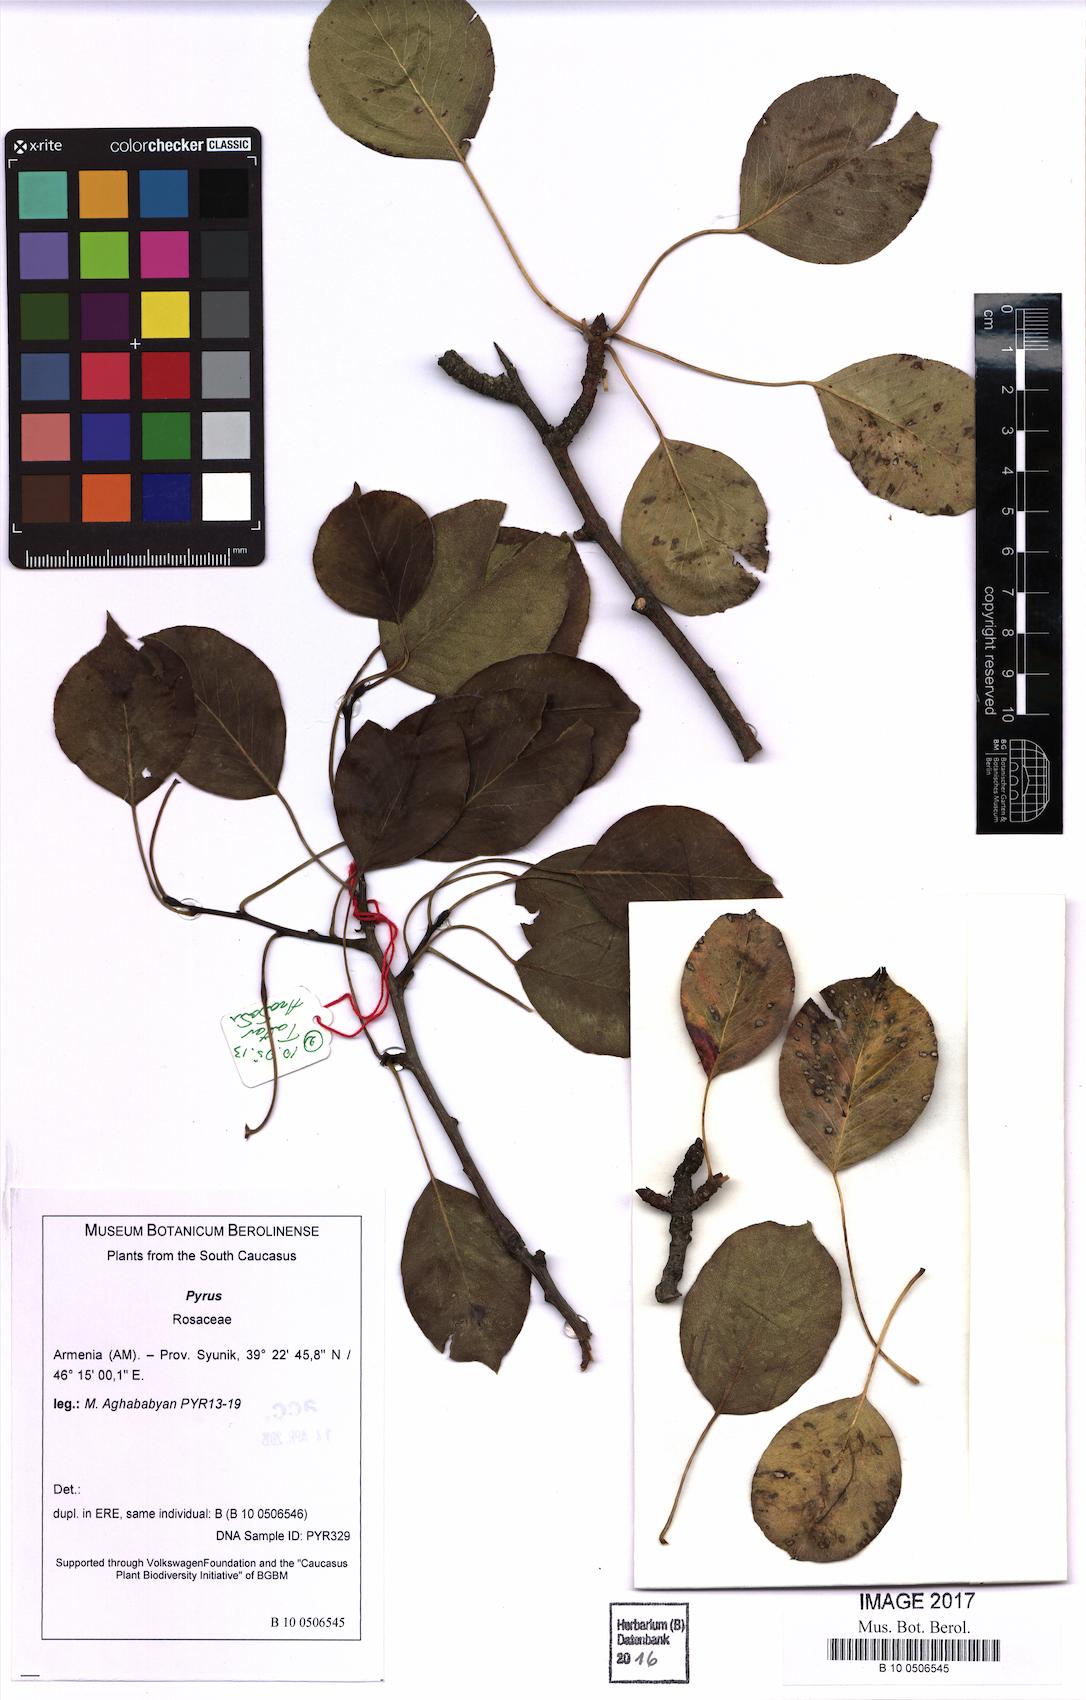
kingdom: Plantae
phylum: Tracheophyta
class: Magnoliopsida
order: Rosales
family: Rosaceae
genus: Pyrus
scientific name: Pyrus
